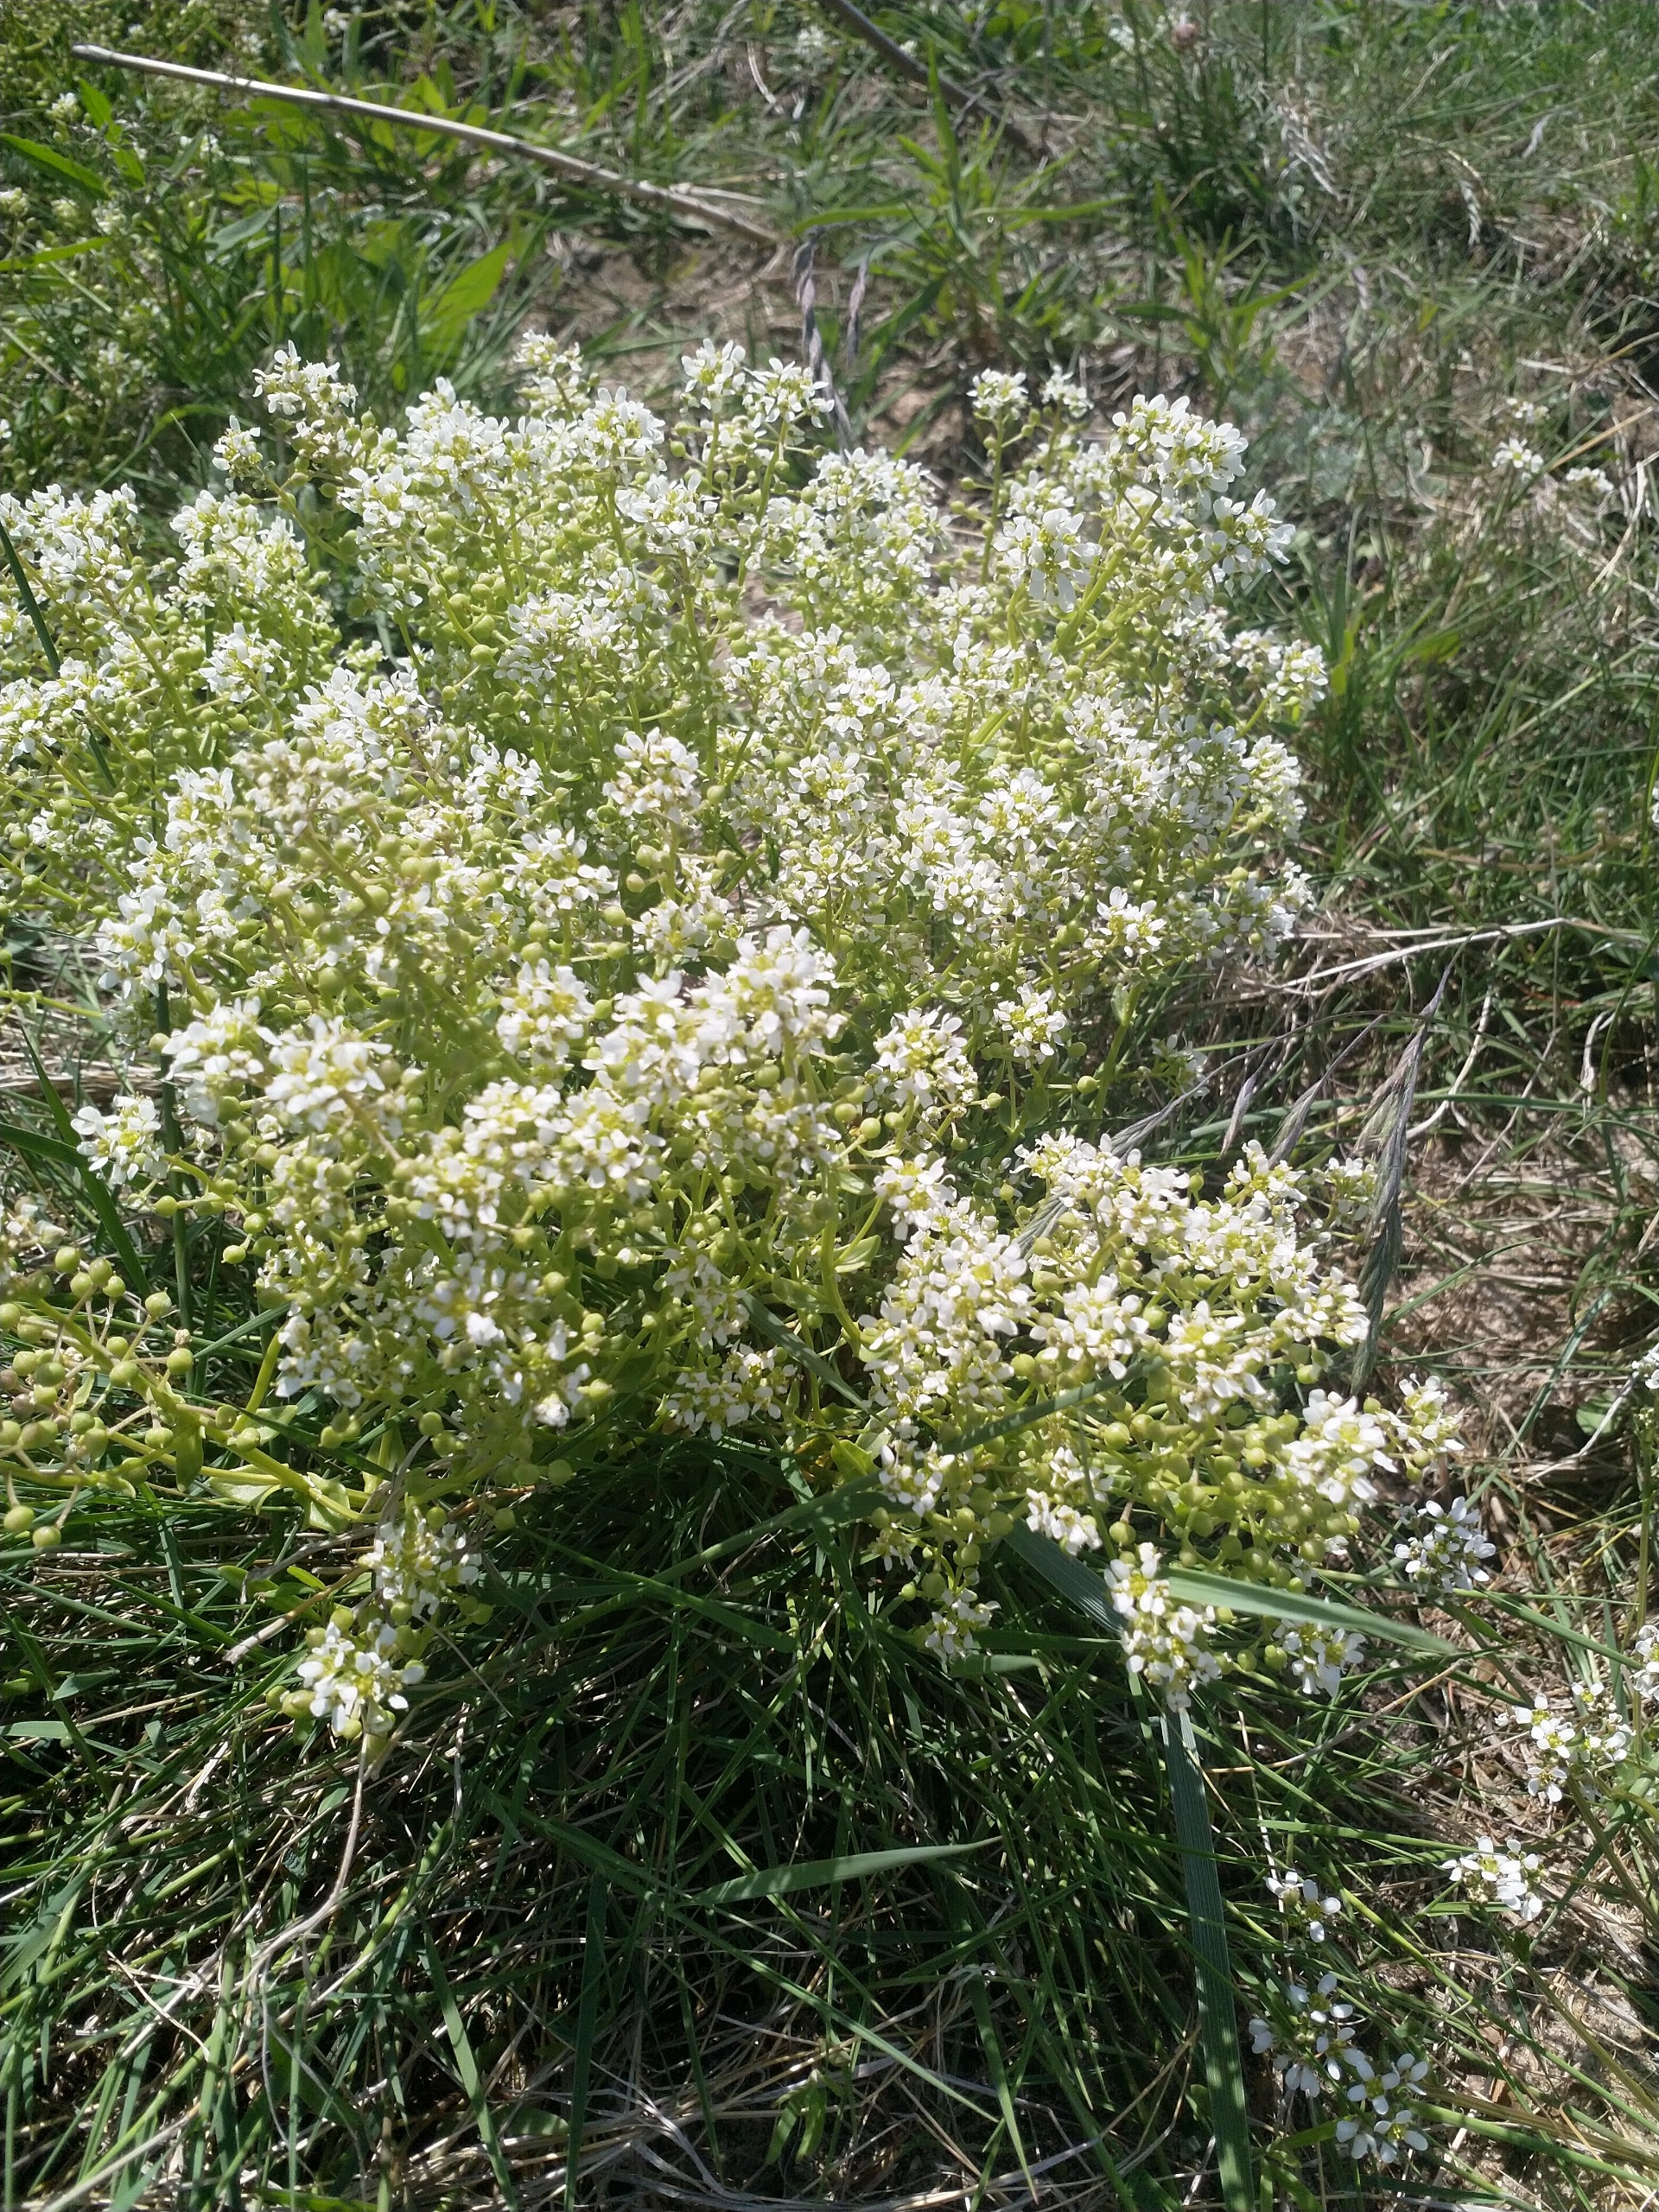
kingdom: Plantae
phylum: Tracheophyta
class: Magnoliopsida
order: Brassicales
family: Brassicaceae
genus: Cochlearia
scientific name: Cochlearia officinalis
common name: Læge-kokleare
